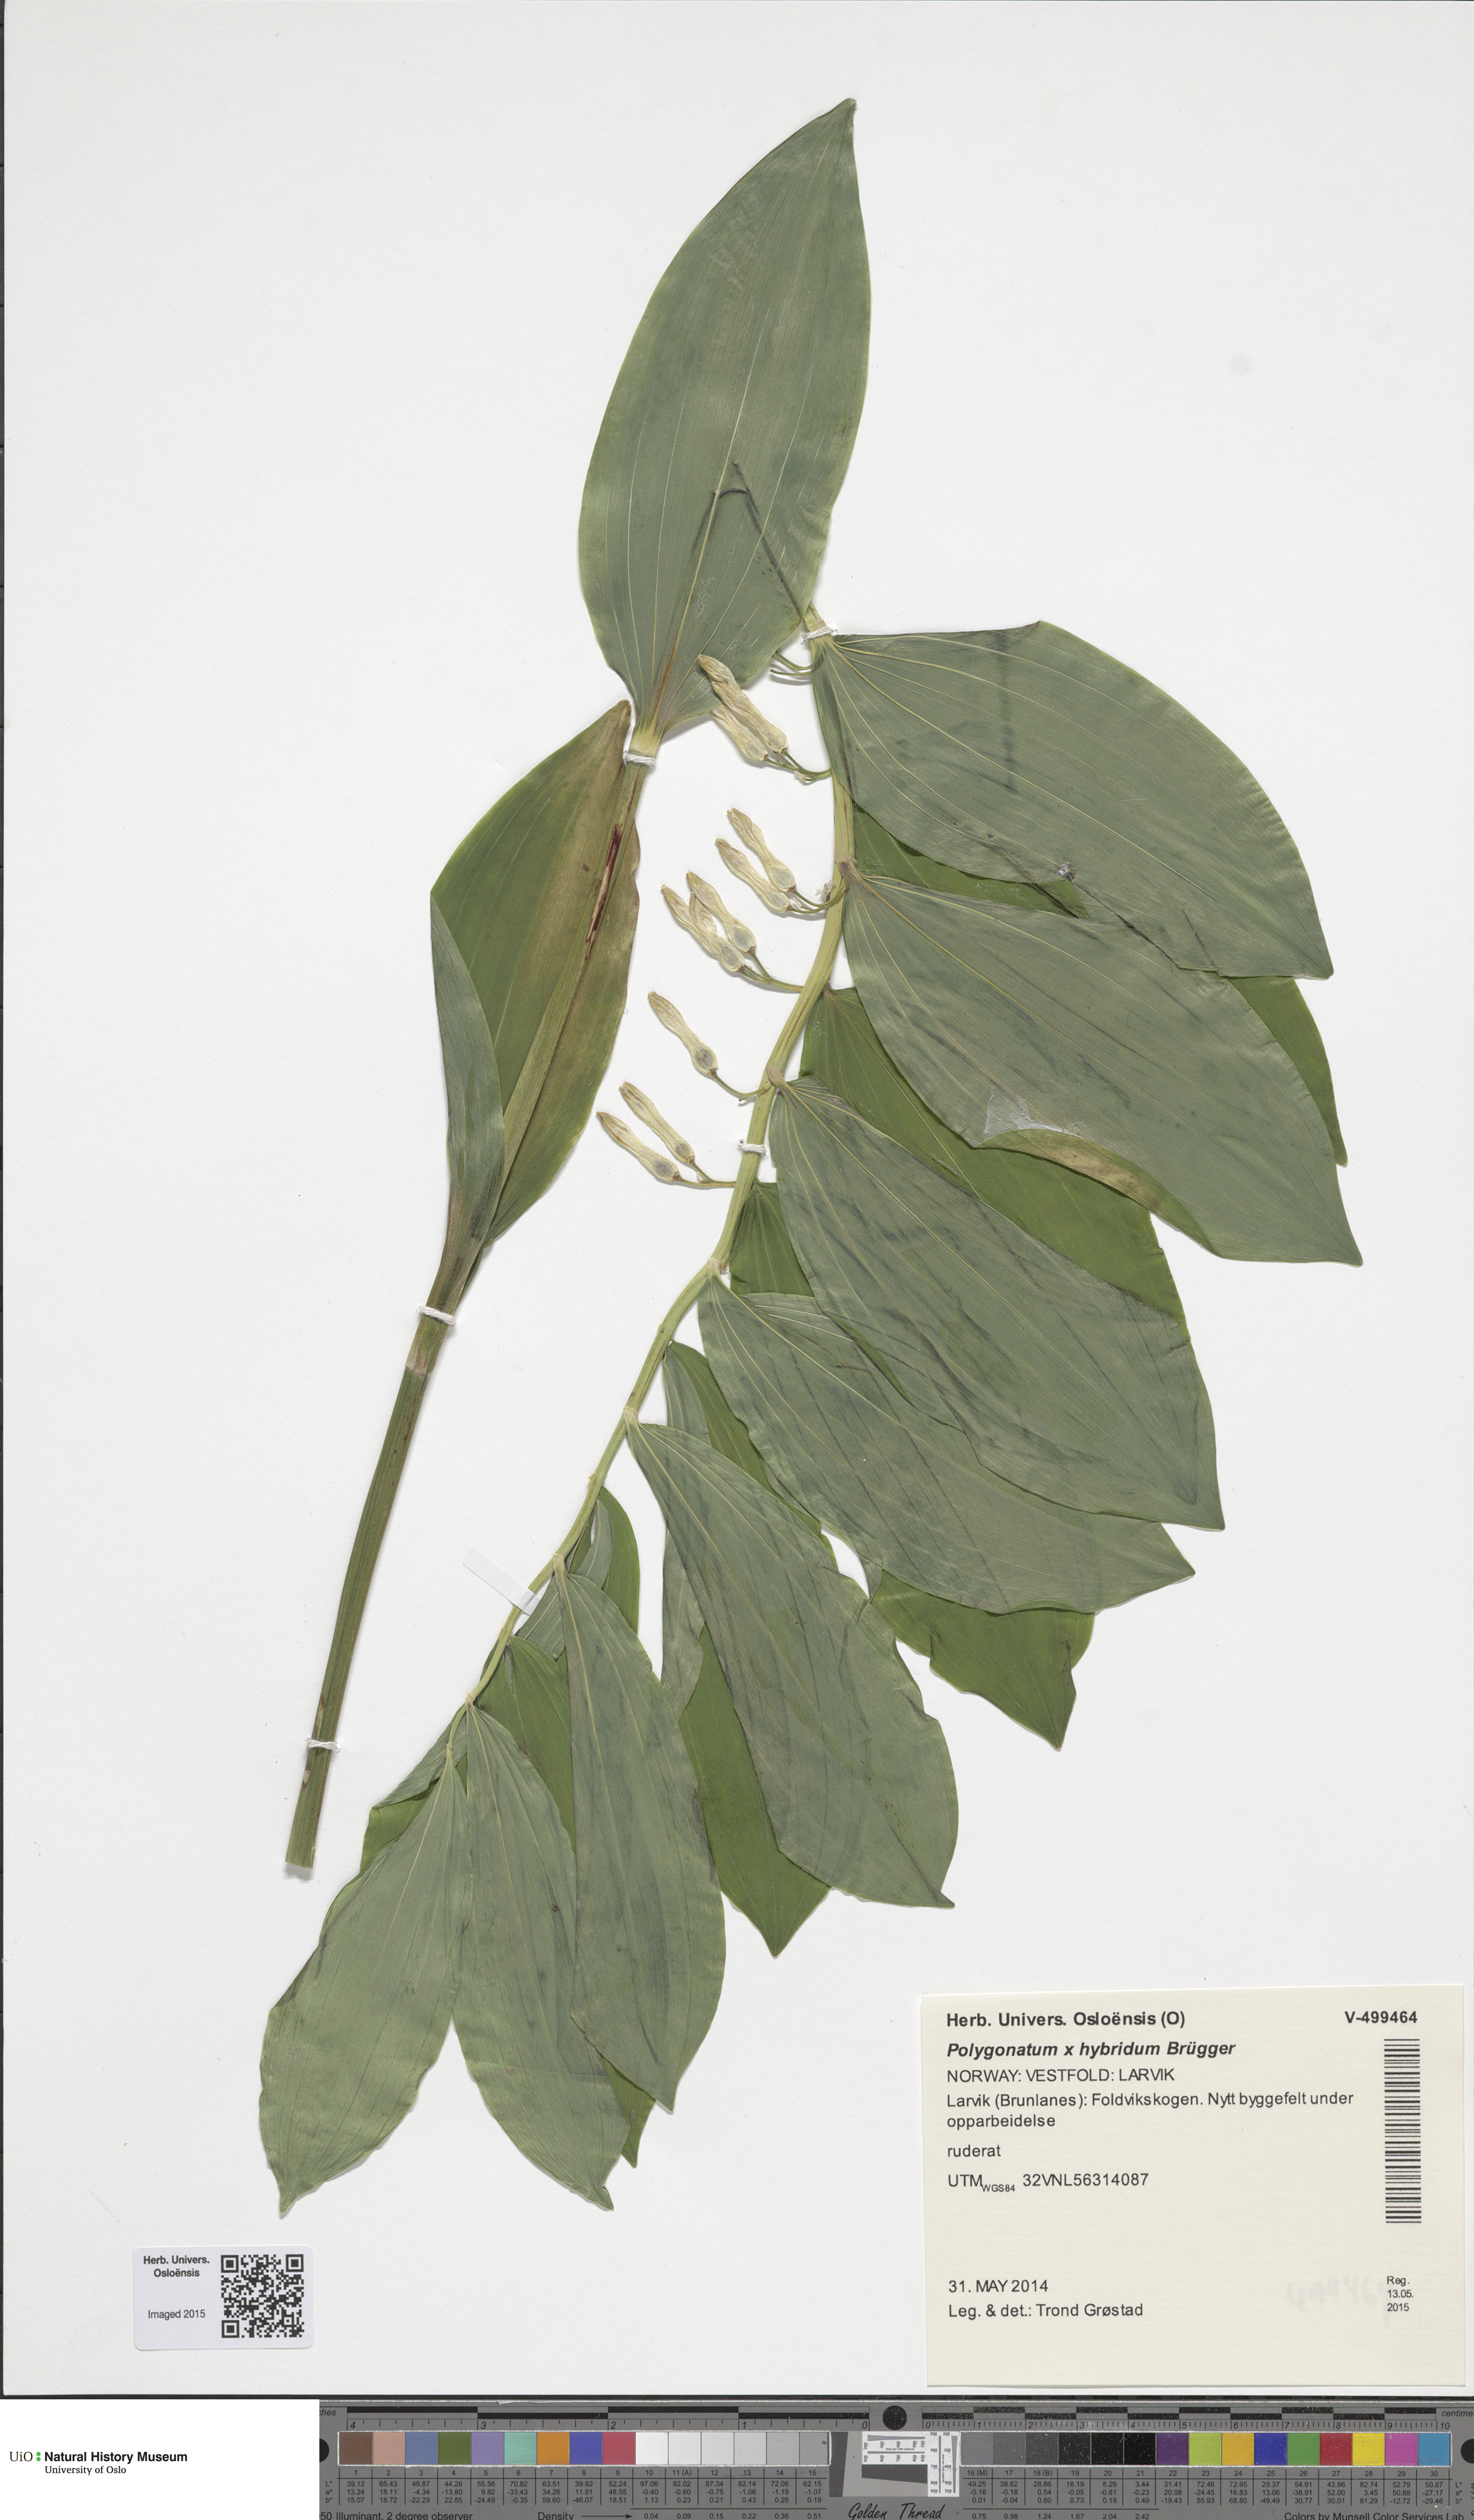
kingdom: Plantae
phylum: Tracheophyta
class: Liliopsida
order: Asparagales
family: Asparagaceae
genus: Polygonatum
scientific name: Polygonatum hybridum
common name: Garden solomon's-seal
